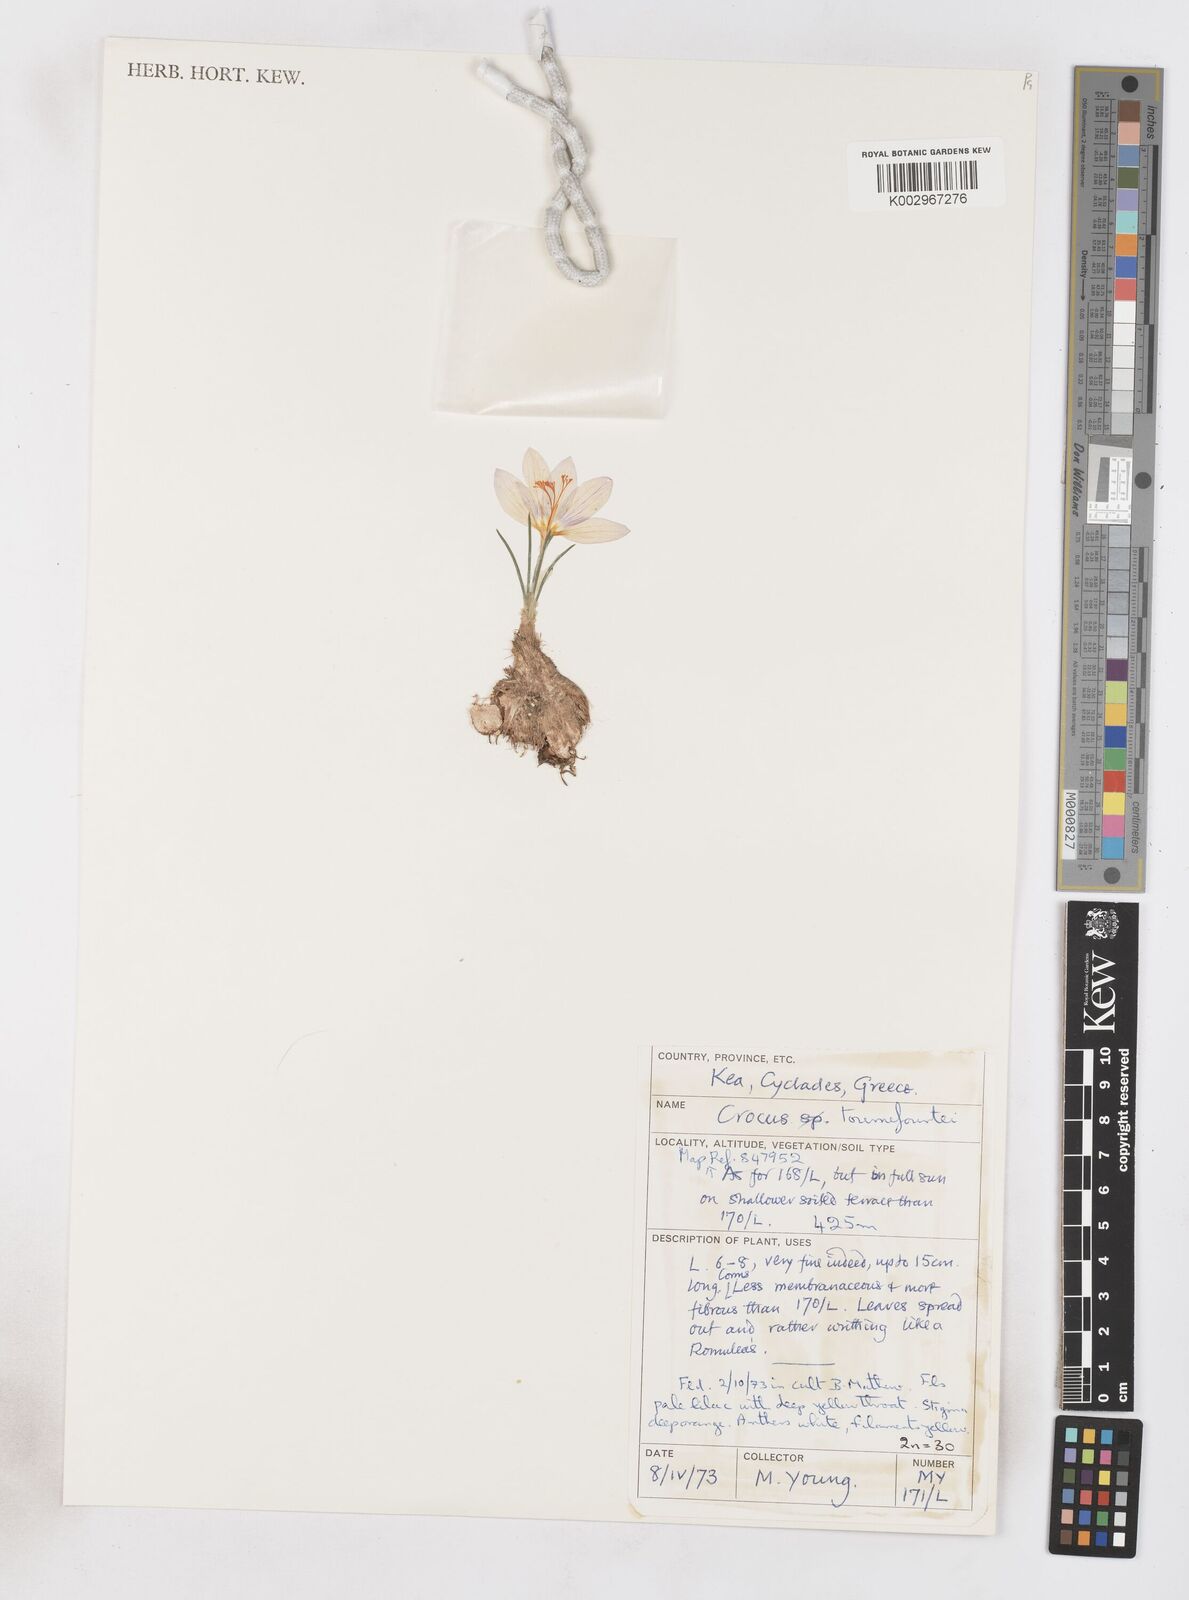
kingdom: Plantae
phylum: Tracheophyta
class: Liliopsida
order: Asparagales
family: Iridaceae
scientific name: Iridaceae
